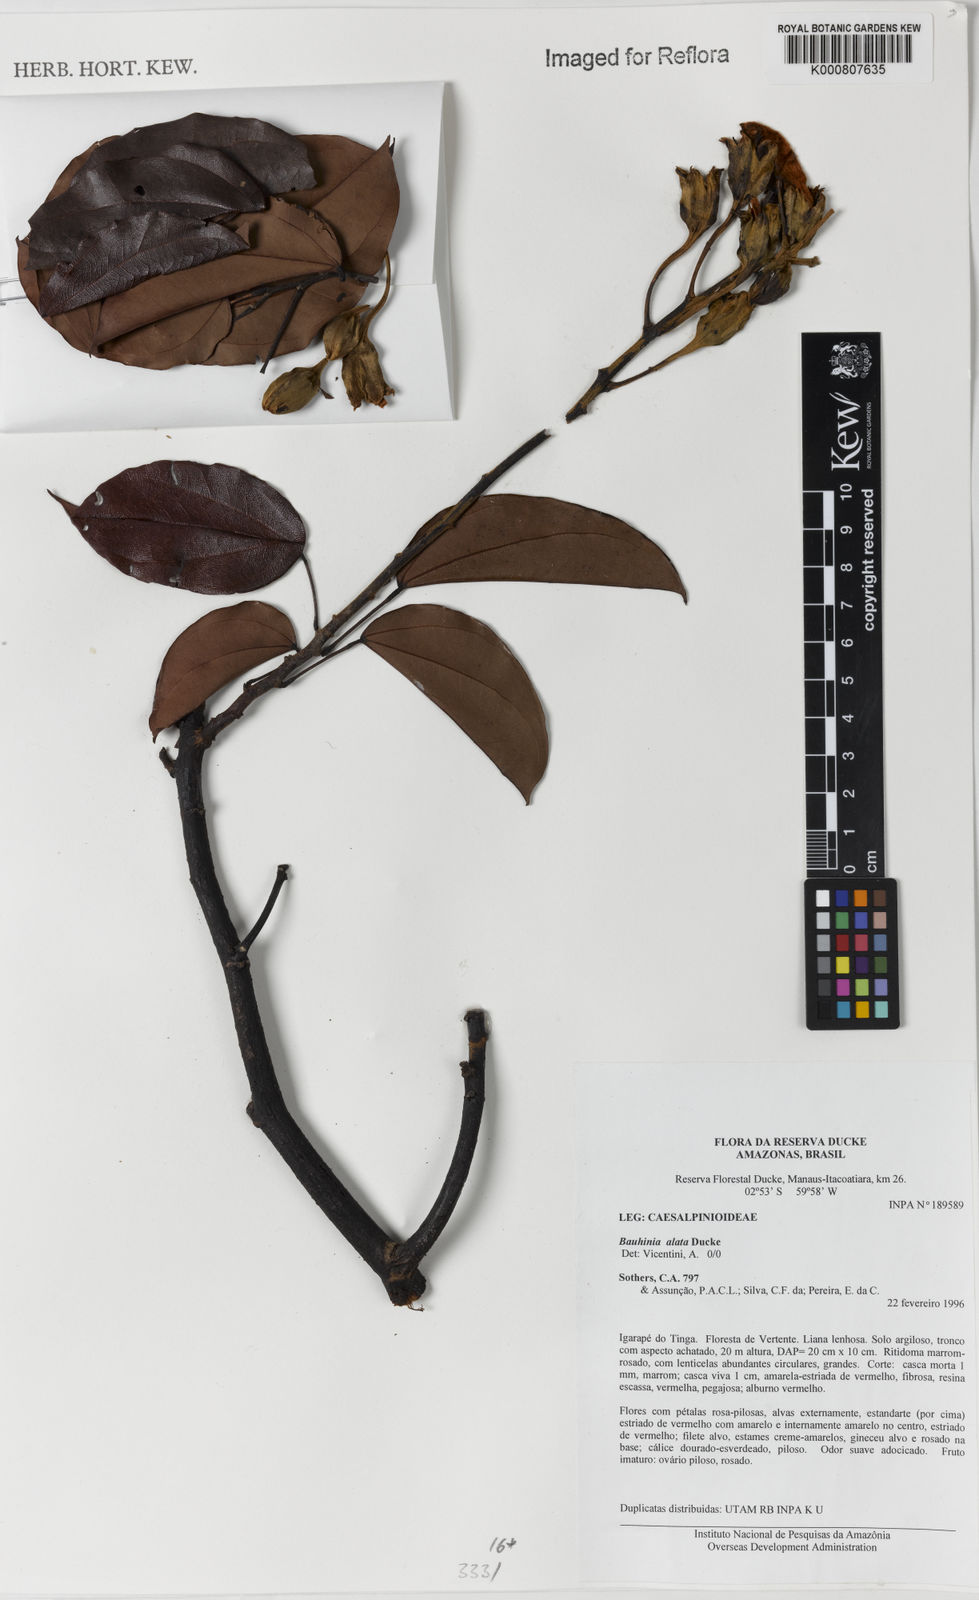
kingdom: Plantae
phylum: Tracheophyta
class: Magnoliopsida
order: Fabales
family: Fabaceae
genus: Schnella
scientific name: Schnella alata
